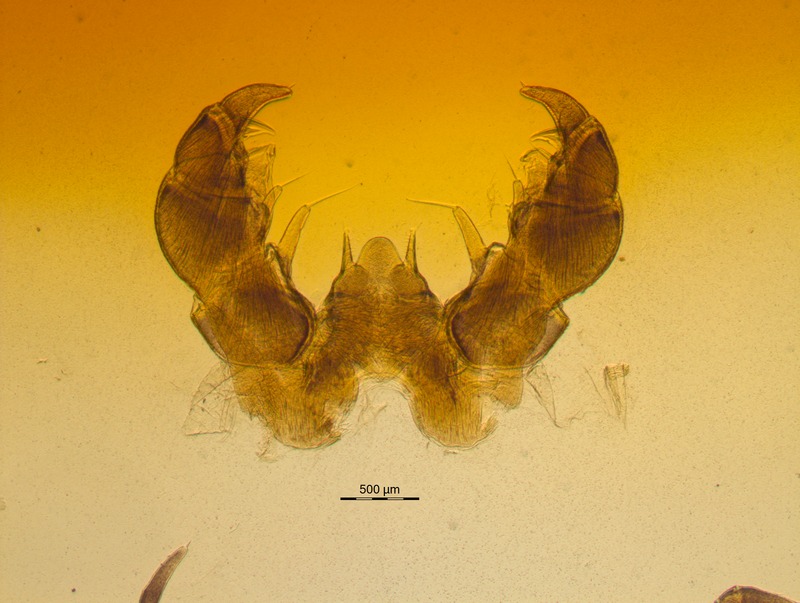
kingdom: Animalia
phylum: Arthropoda
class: Diplopoda
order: Glomerida
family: Glomeridae
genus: Glomeris
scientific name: Glomeris conspersa
